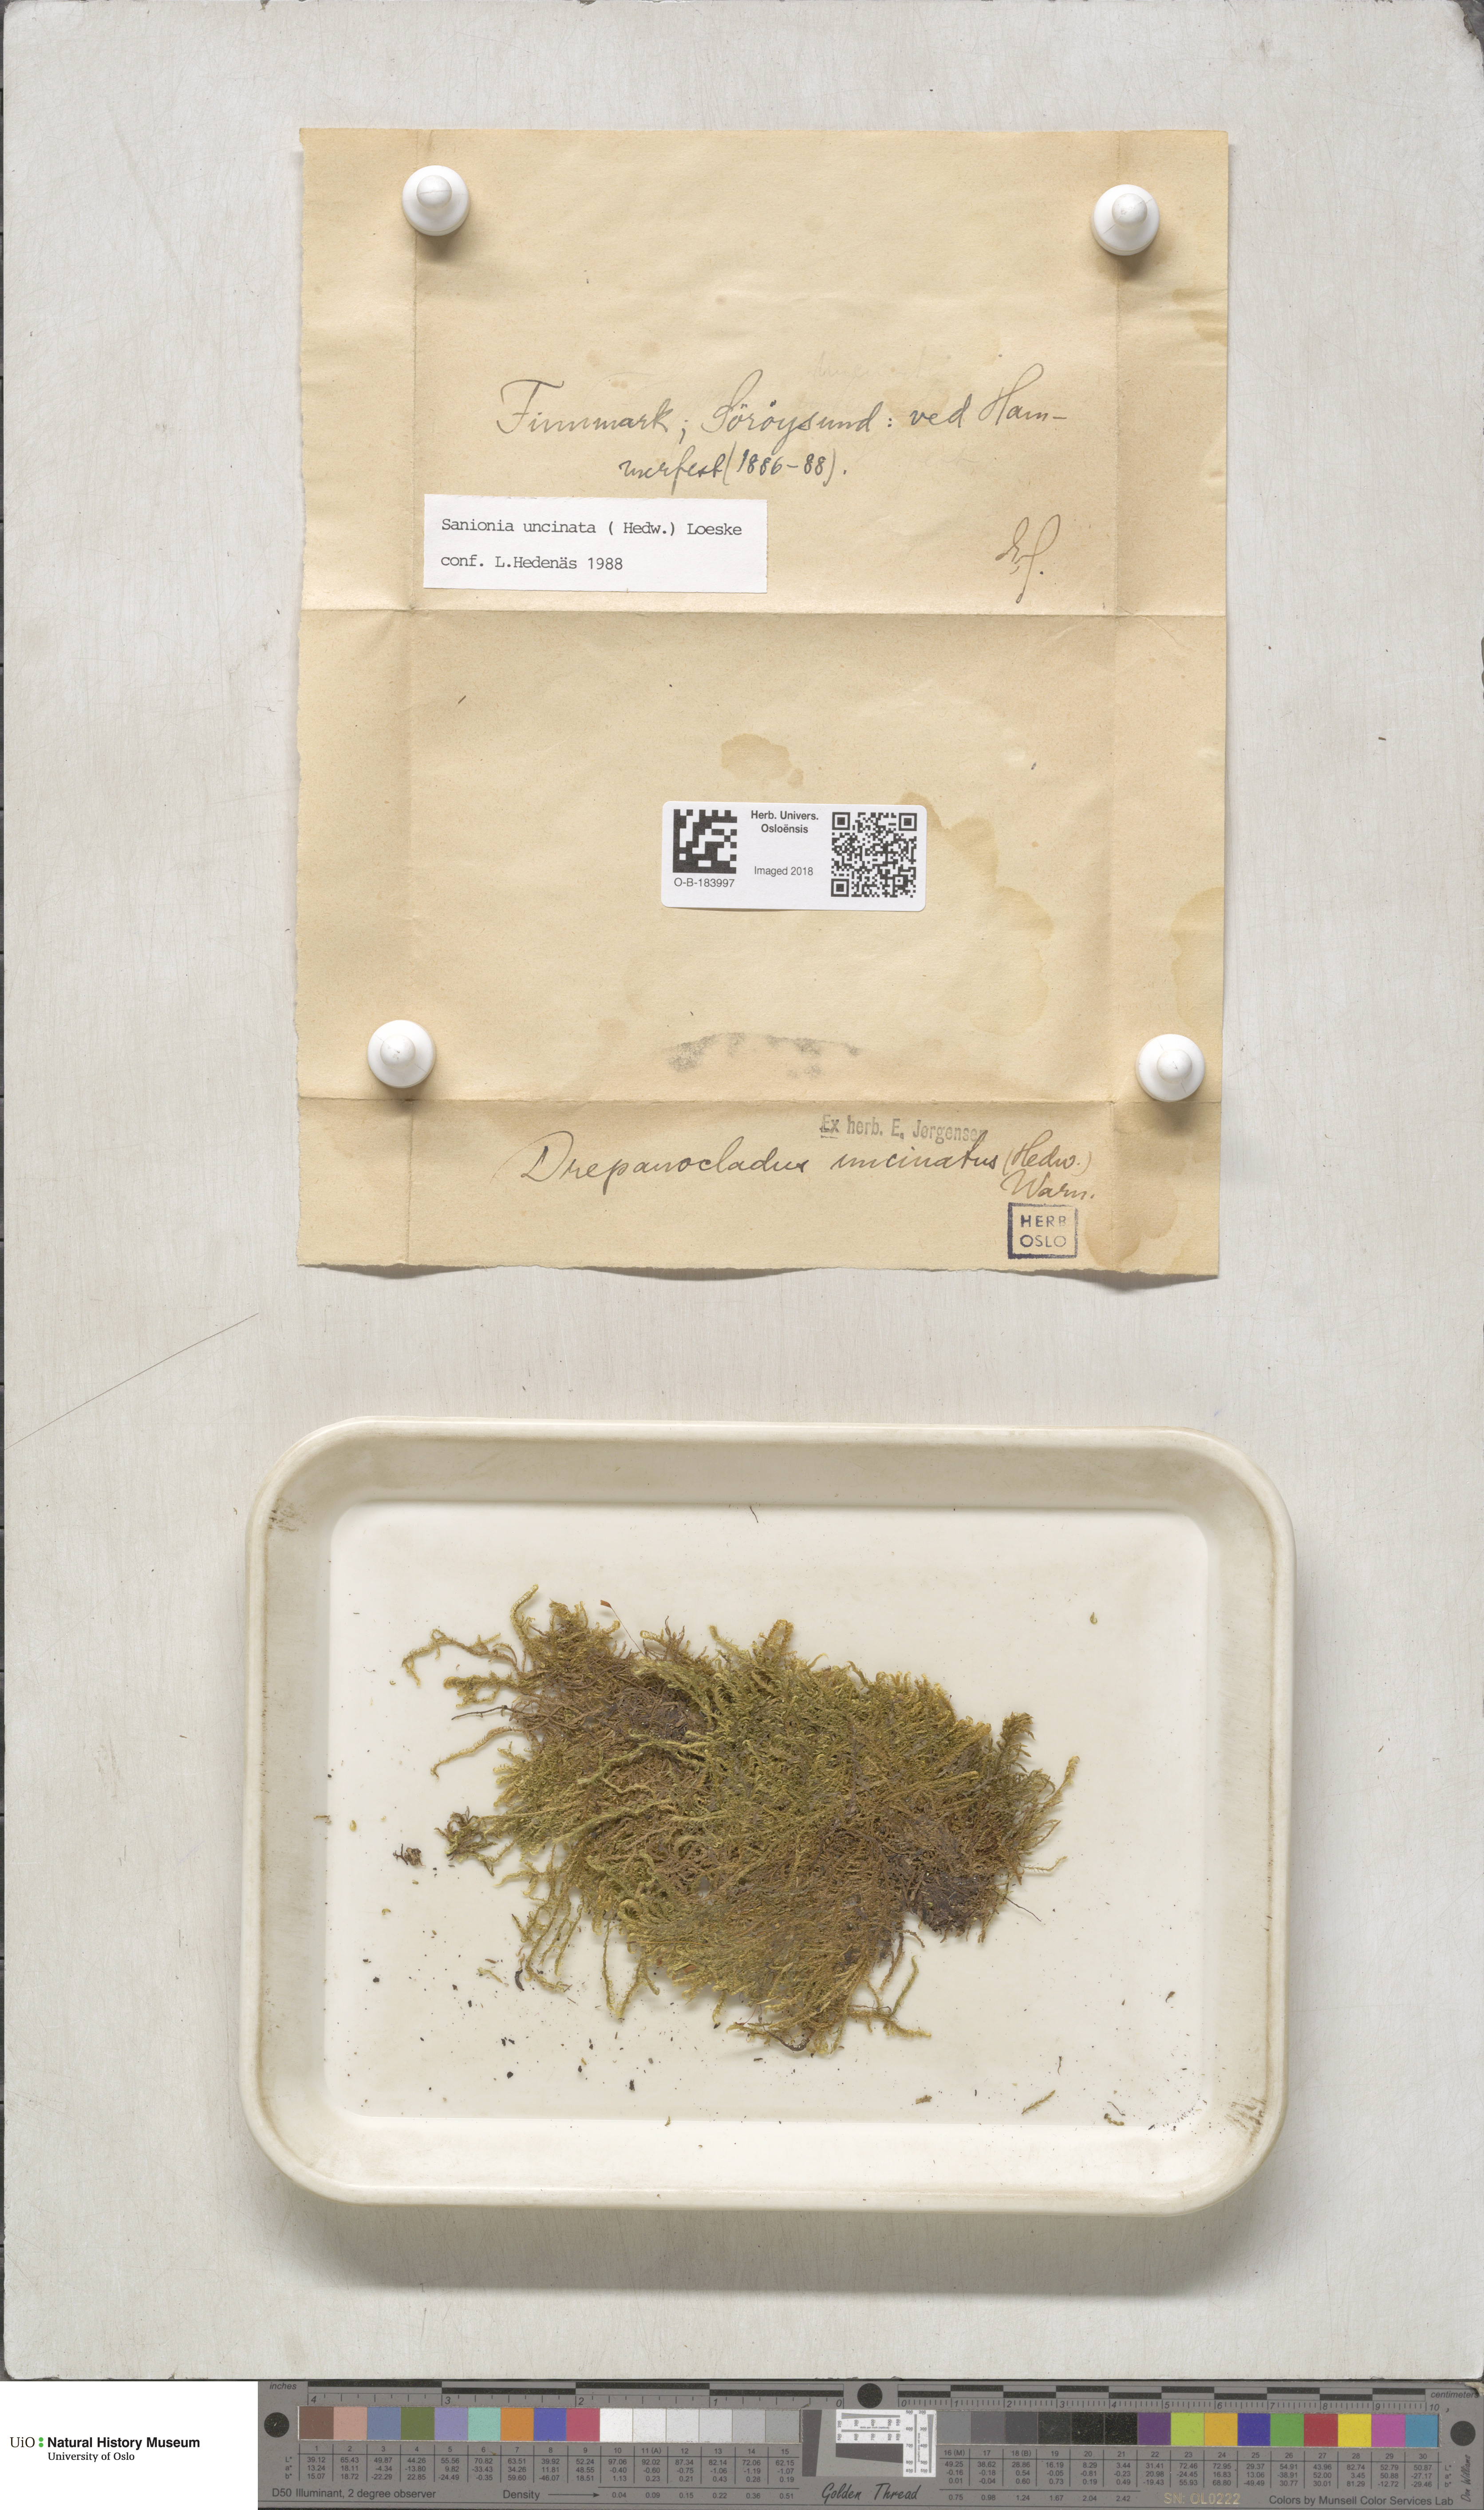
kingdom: Plantae
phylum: Bryophyta
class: Bryopsida
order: Hypnales
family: Scorpidiaceae
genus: Sanionia
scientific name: Sanionia uncinata
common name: Sickle moss
